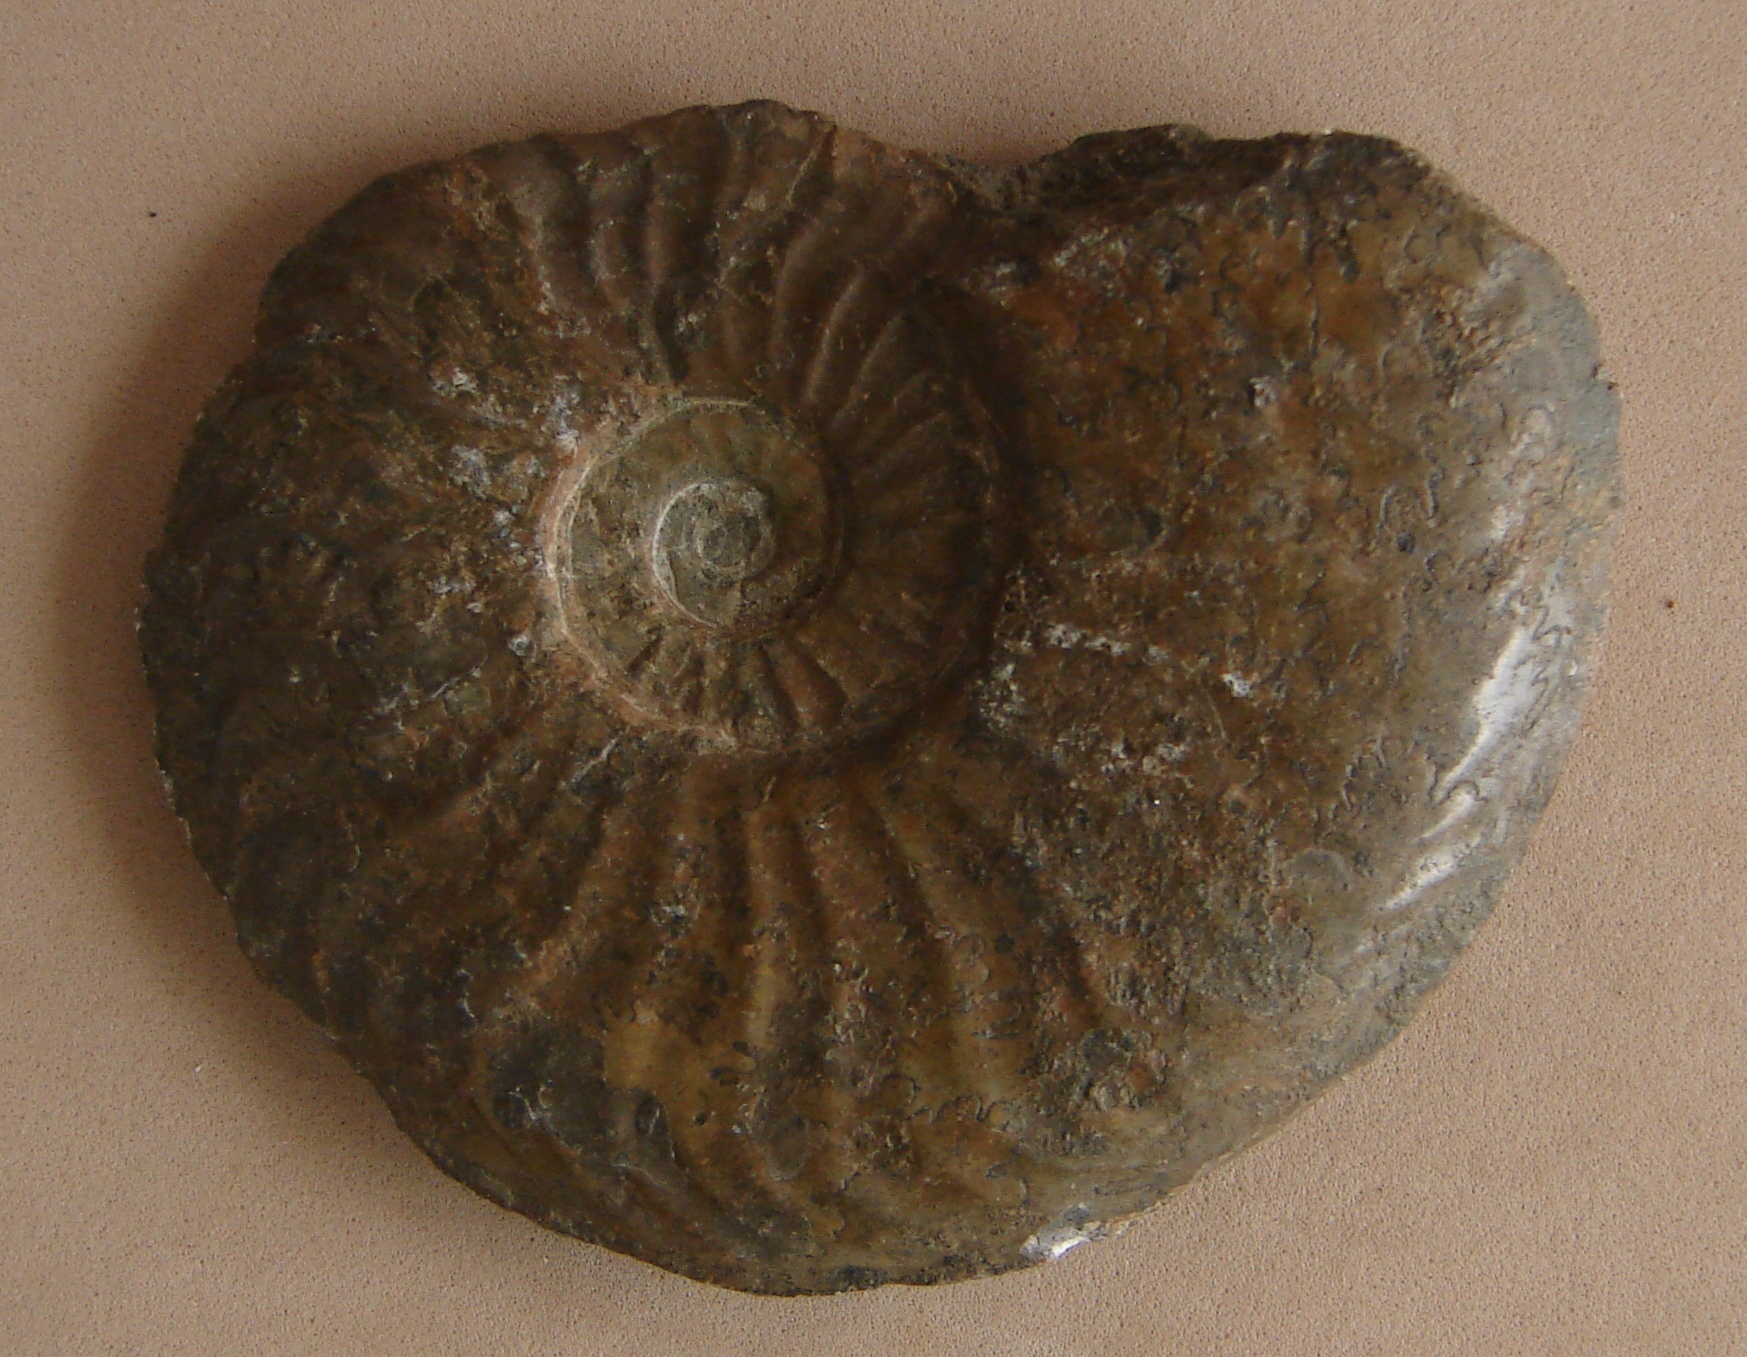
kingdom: Animalia
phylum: Mollusca
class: Cephalopoda
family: Hildoceratidae
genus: Pleydellia
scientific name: Pleydellia aalensis
